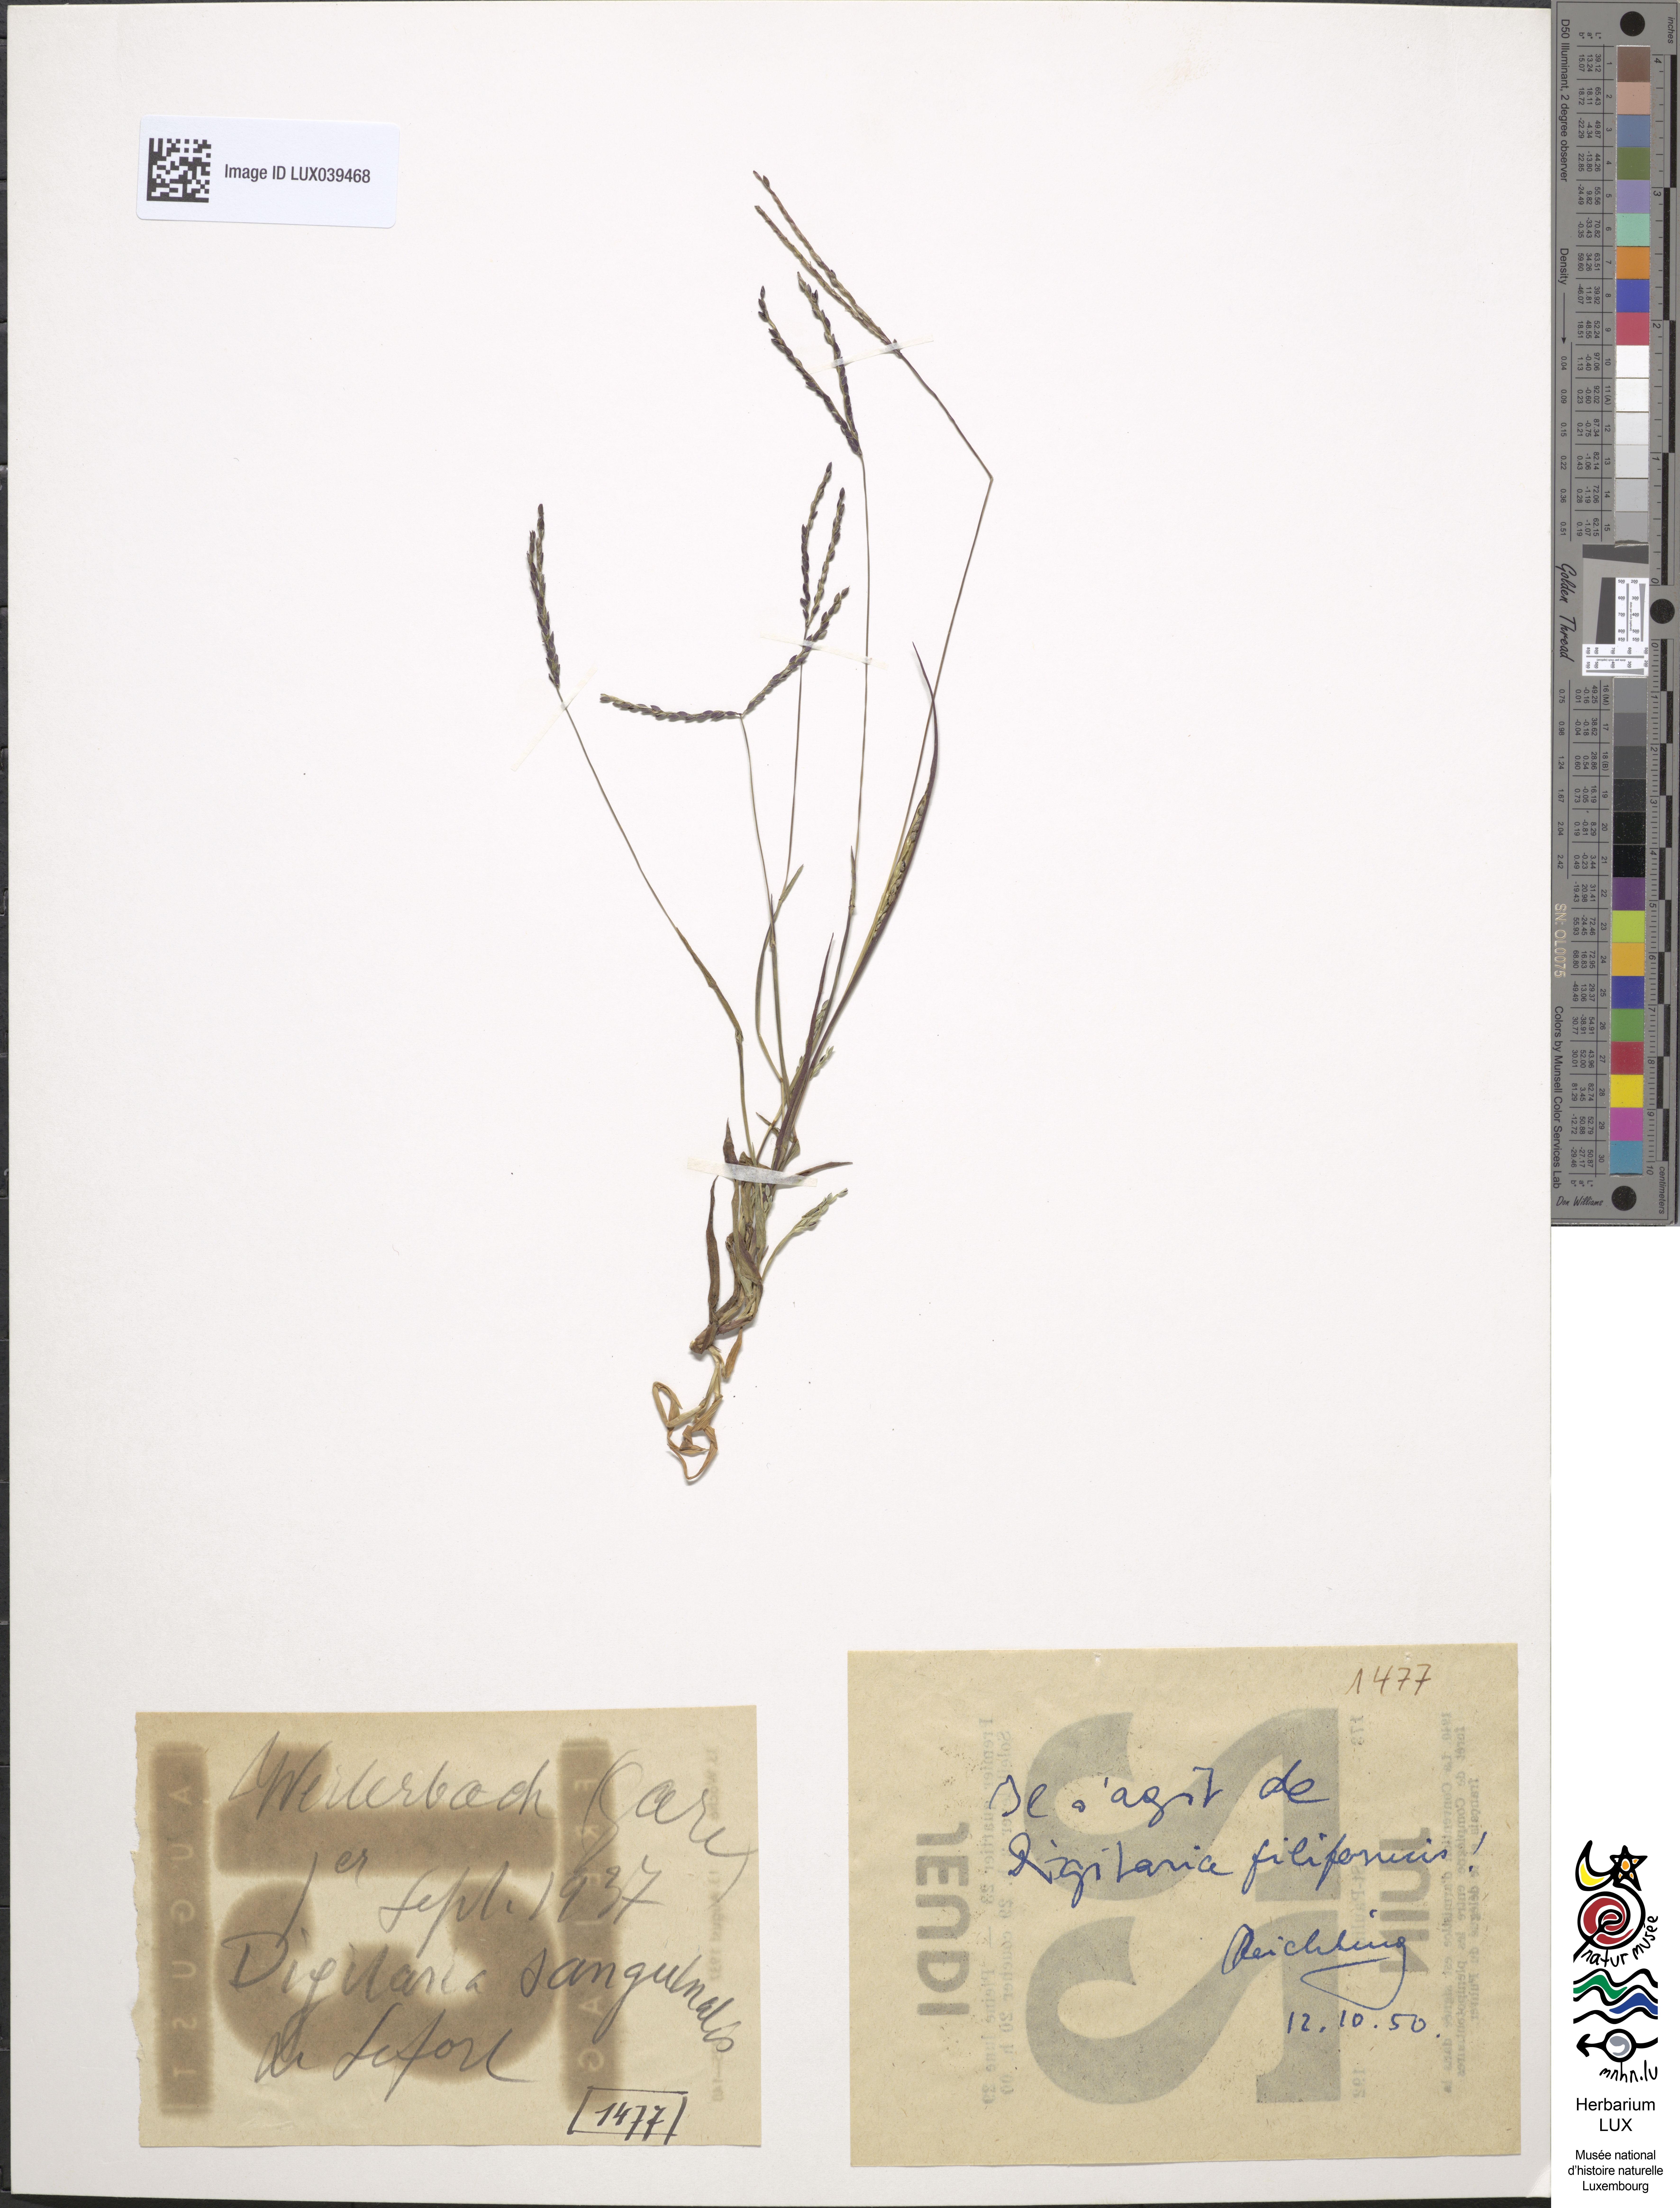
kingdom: Plantae
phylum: Tracheophyta
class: Liliopsida
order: Poales
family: Poaceae
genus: Digitaria
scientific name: Digitaria ischaemum
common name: Smooth crabgrass
